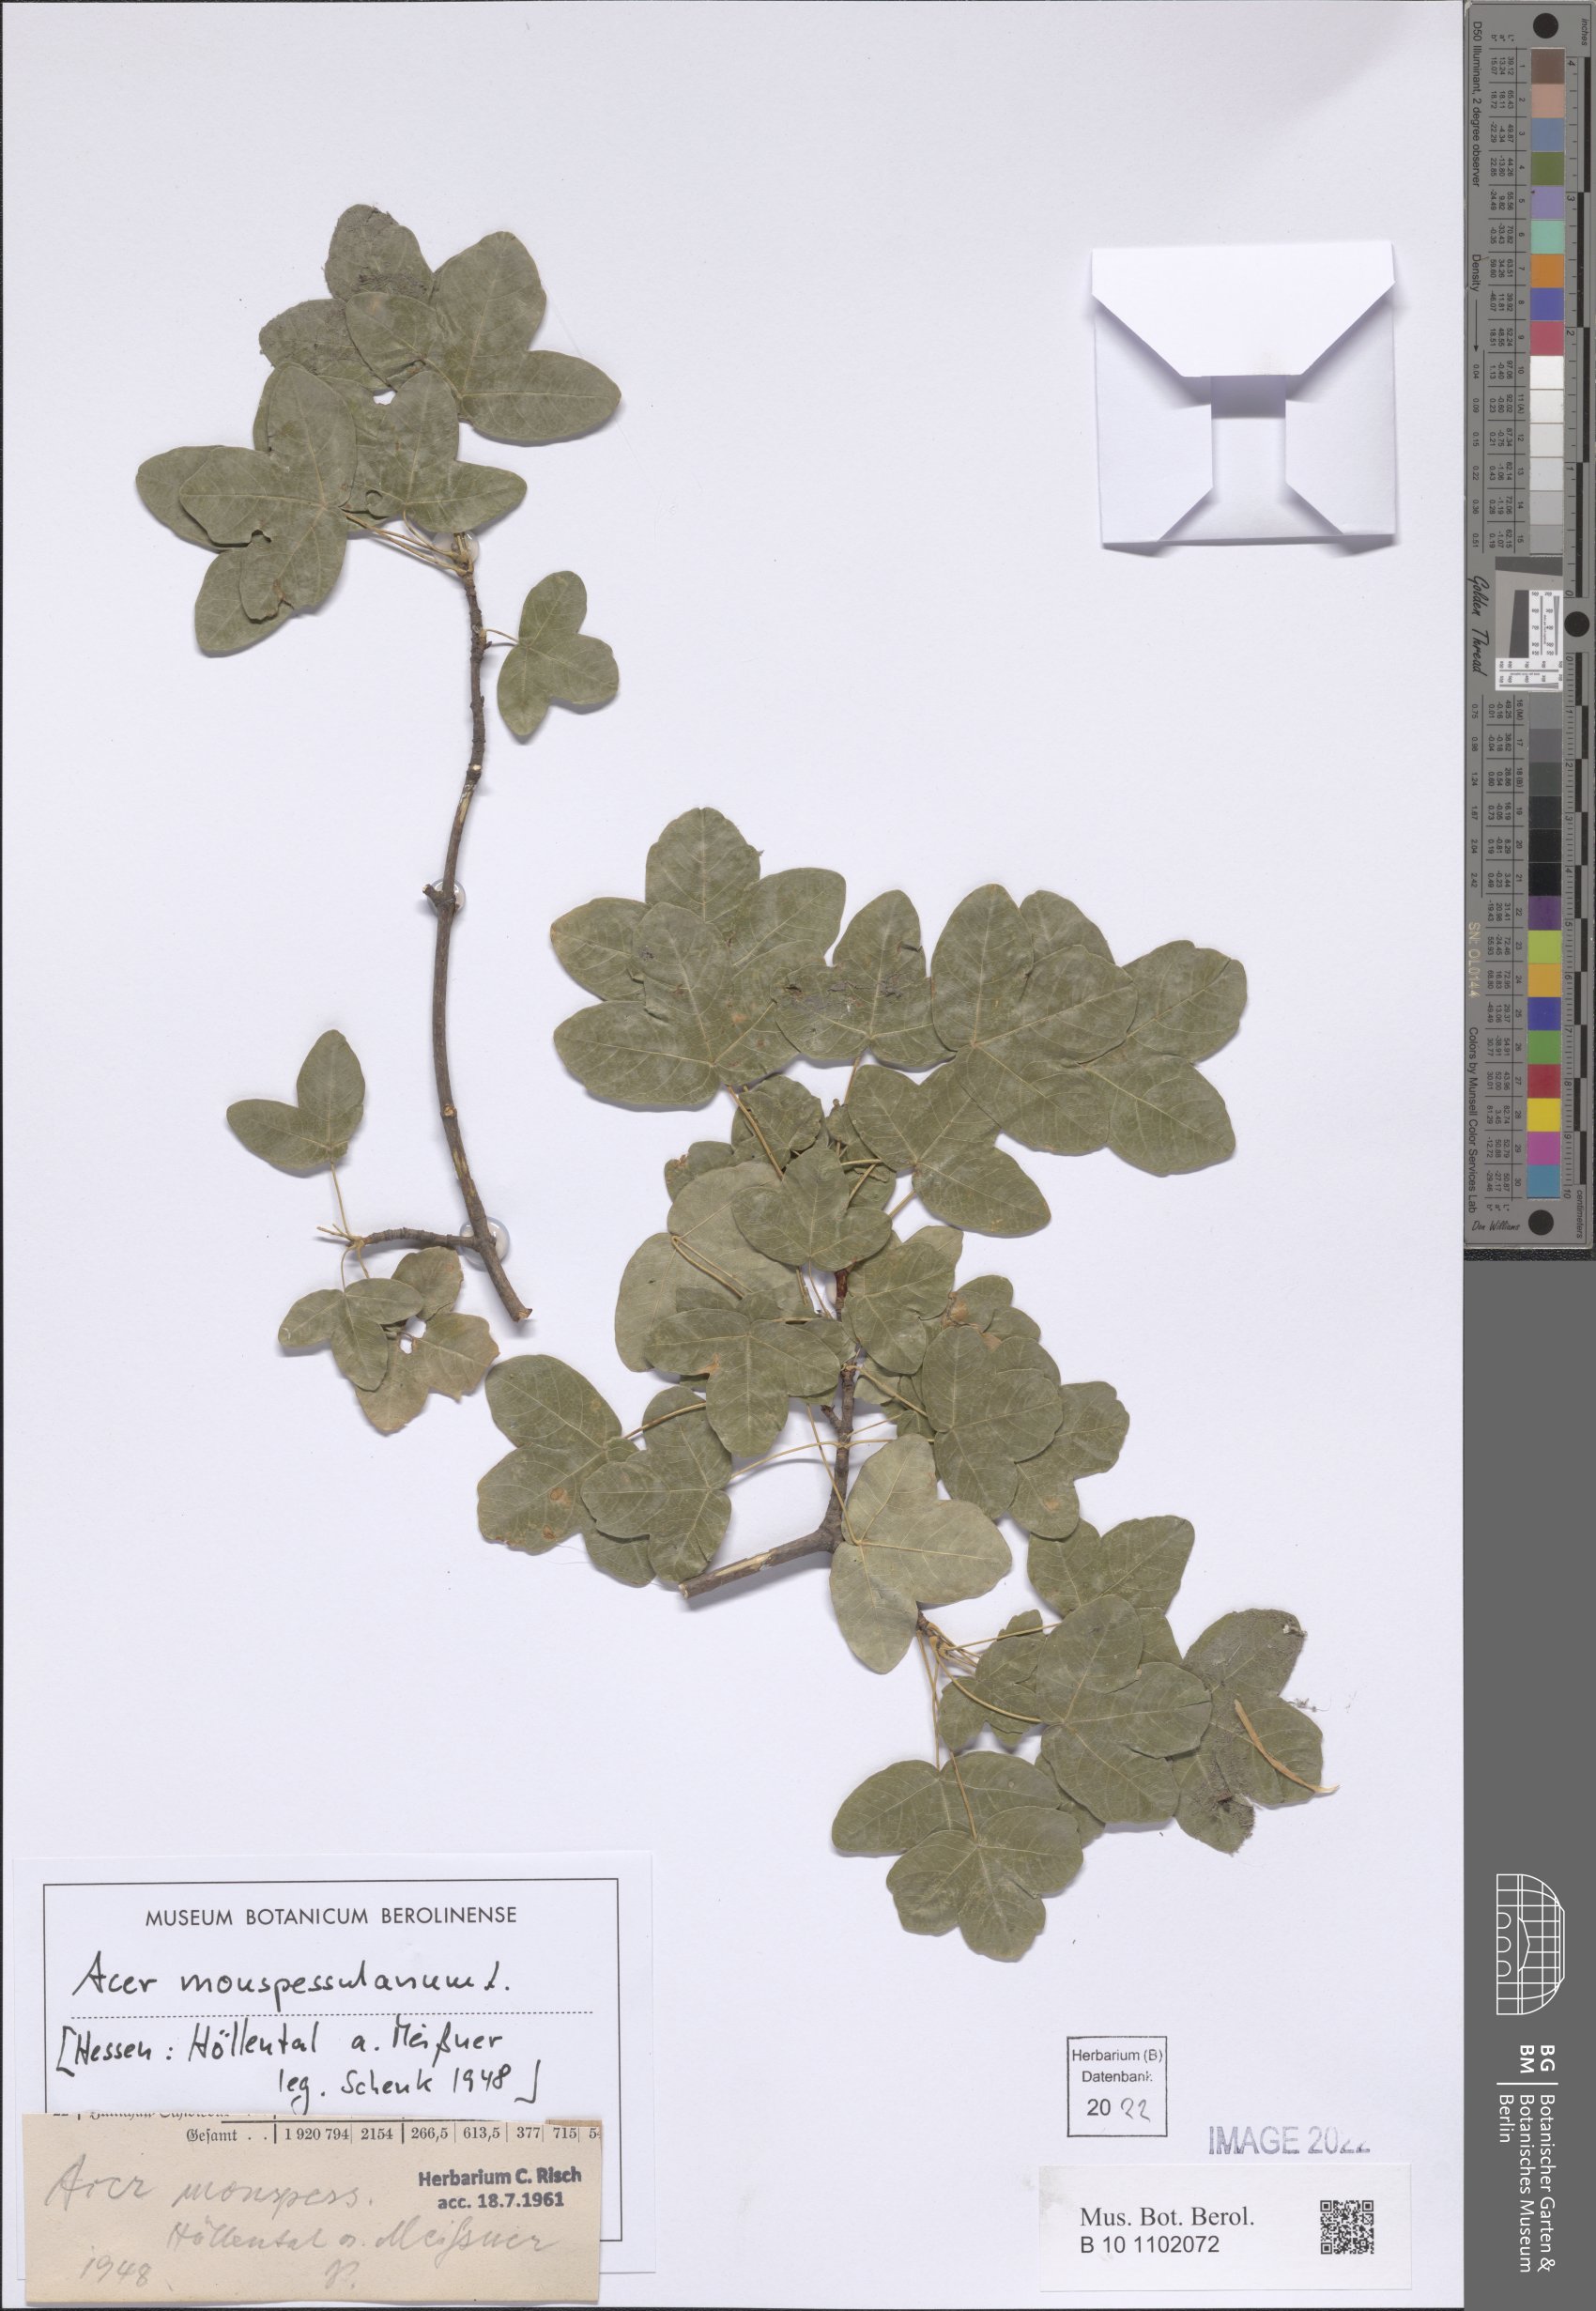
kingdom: Plantae
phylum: Tracheophyta
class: Magnoliopsida
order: Sapindales
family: Sapindaceae
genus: Acer
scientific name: Acer monspessulanum
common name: Montpellier maple
